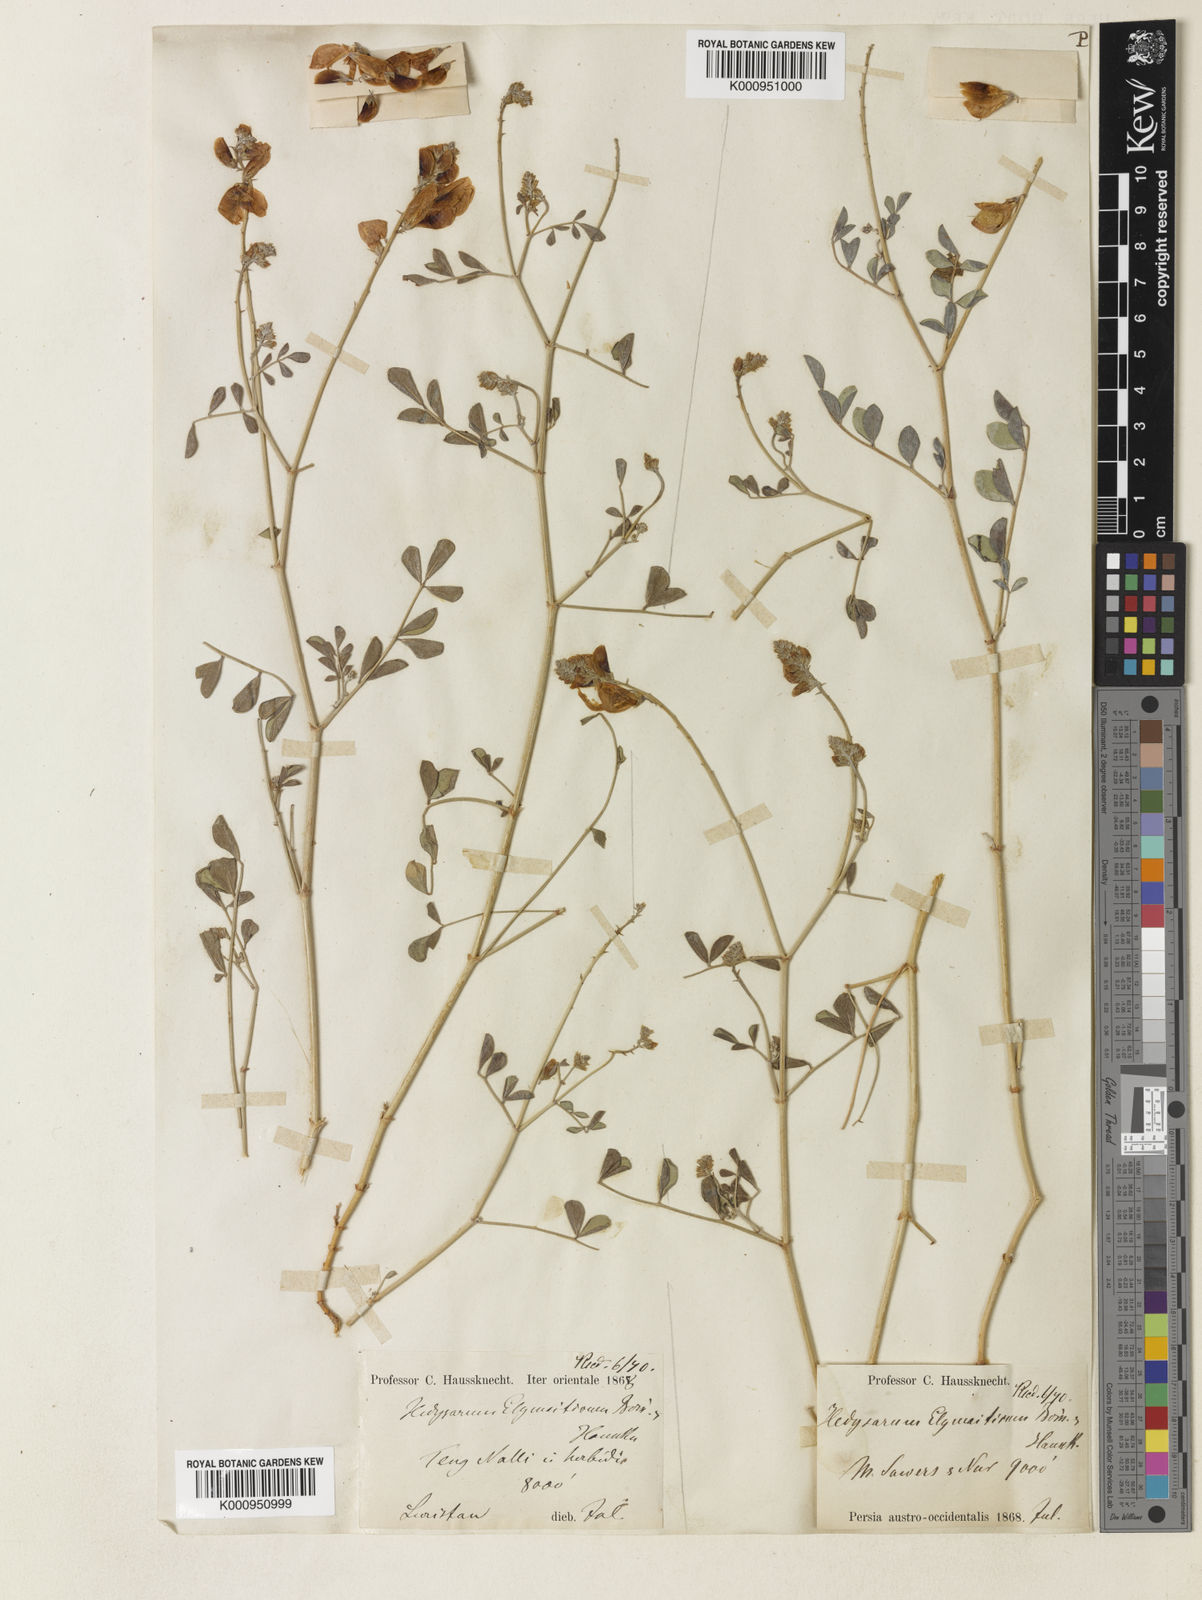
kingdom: Plantae
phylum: Tracheophyta
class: Magnoliopsida
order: Fabales
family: Fabaceae
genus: Hedysarum
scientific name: Hedysarum elymaiticum
